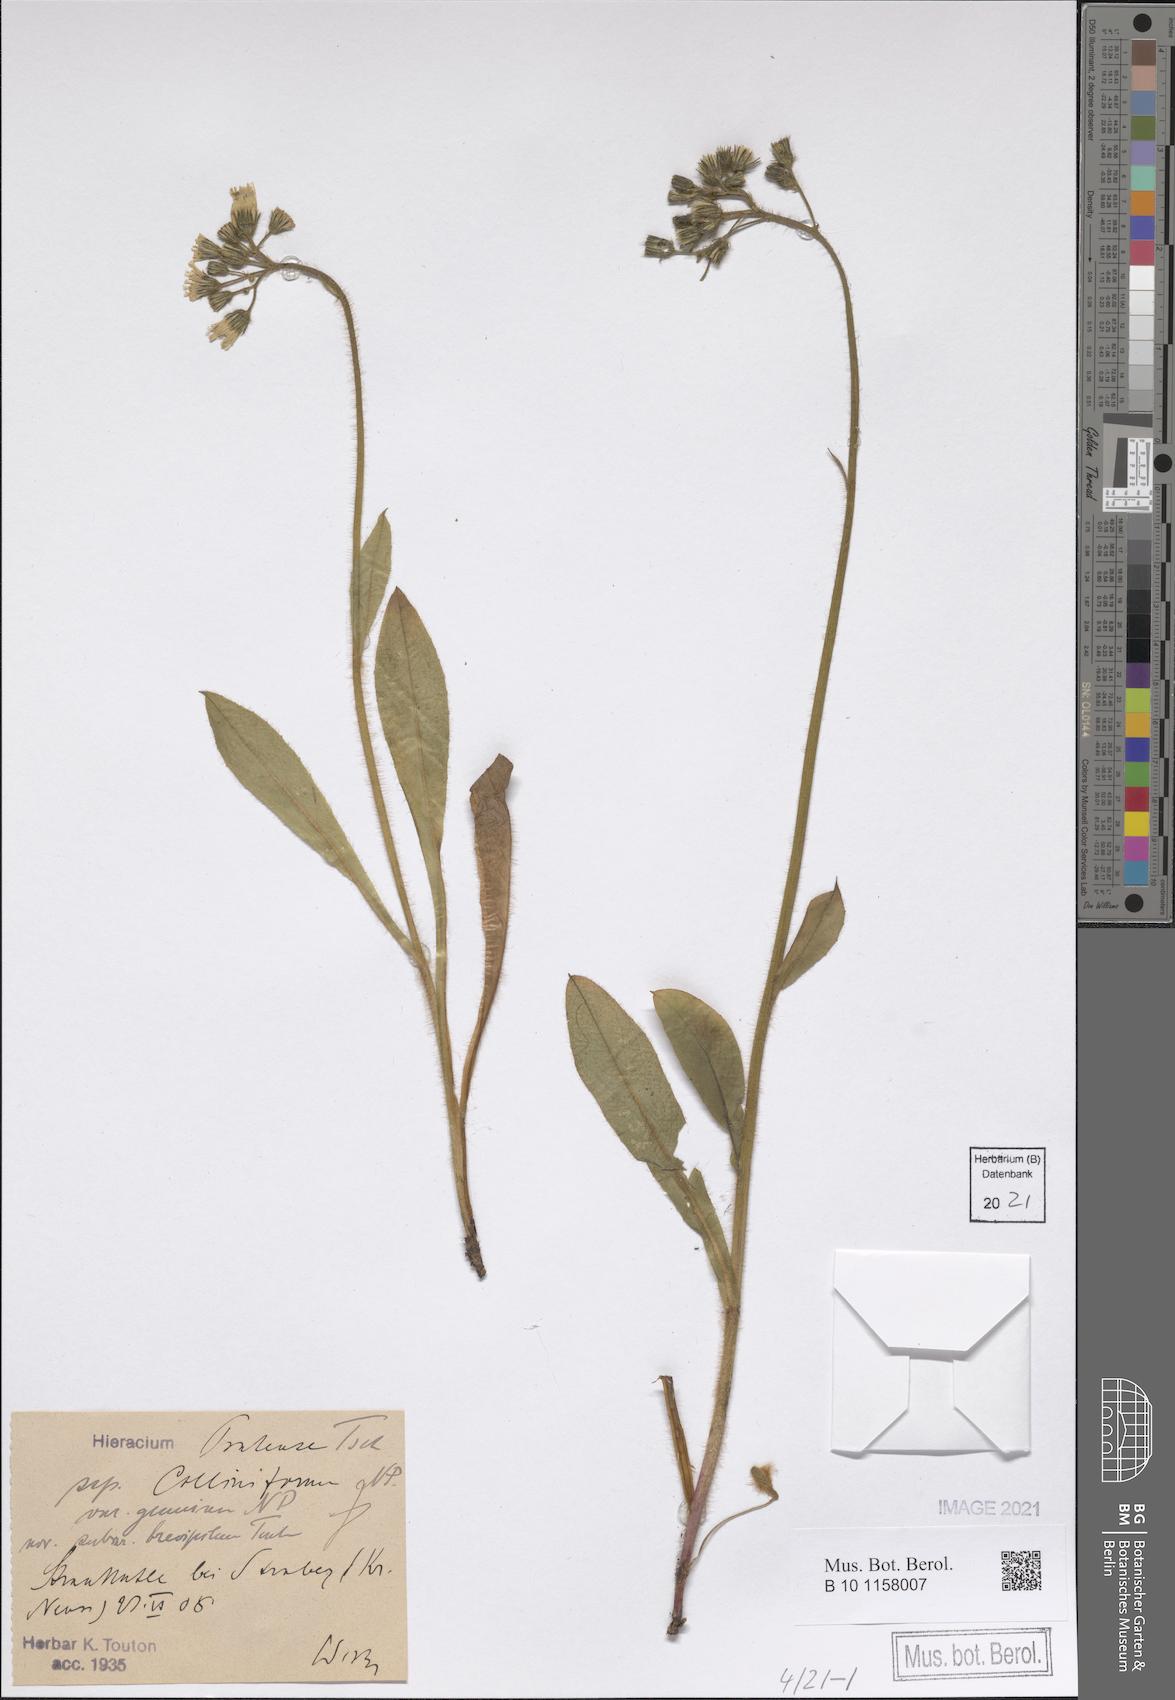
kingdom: Plantae
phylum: Tracheophyta
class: Magnoliopsida
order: Asterales
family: Asteraceae
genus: Pilosella
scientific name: Pilosella caespitosa
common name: Yellow fox-and-cubs
